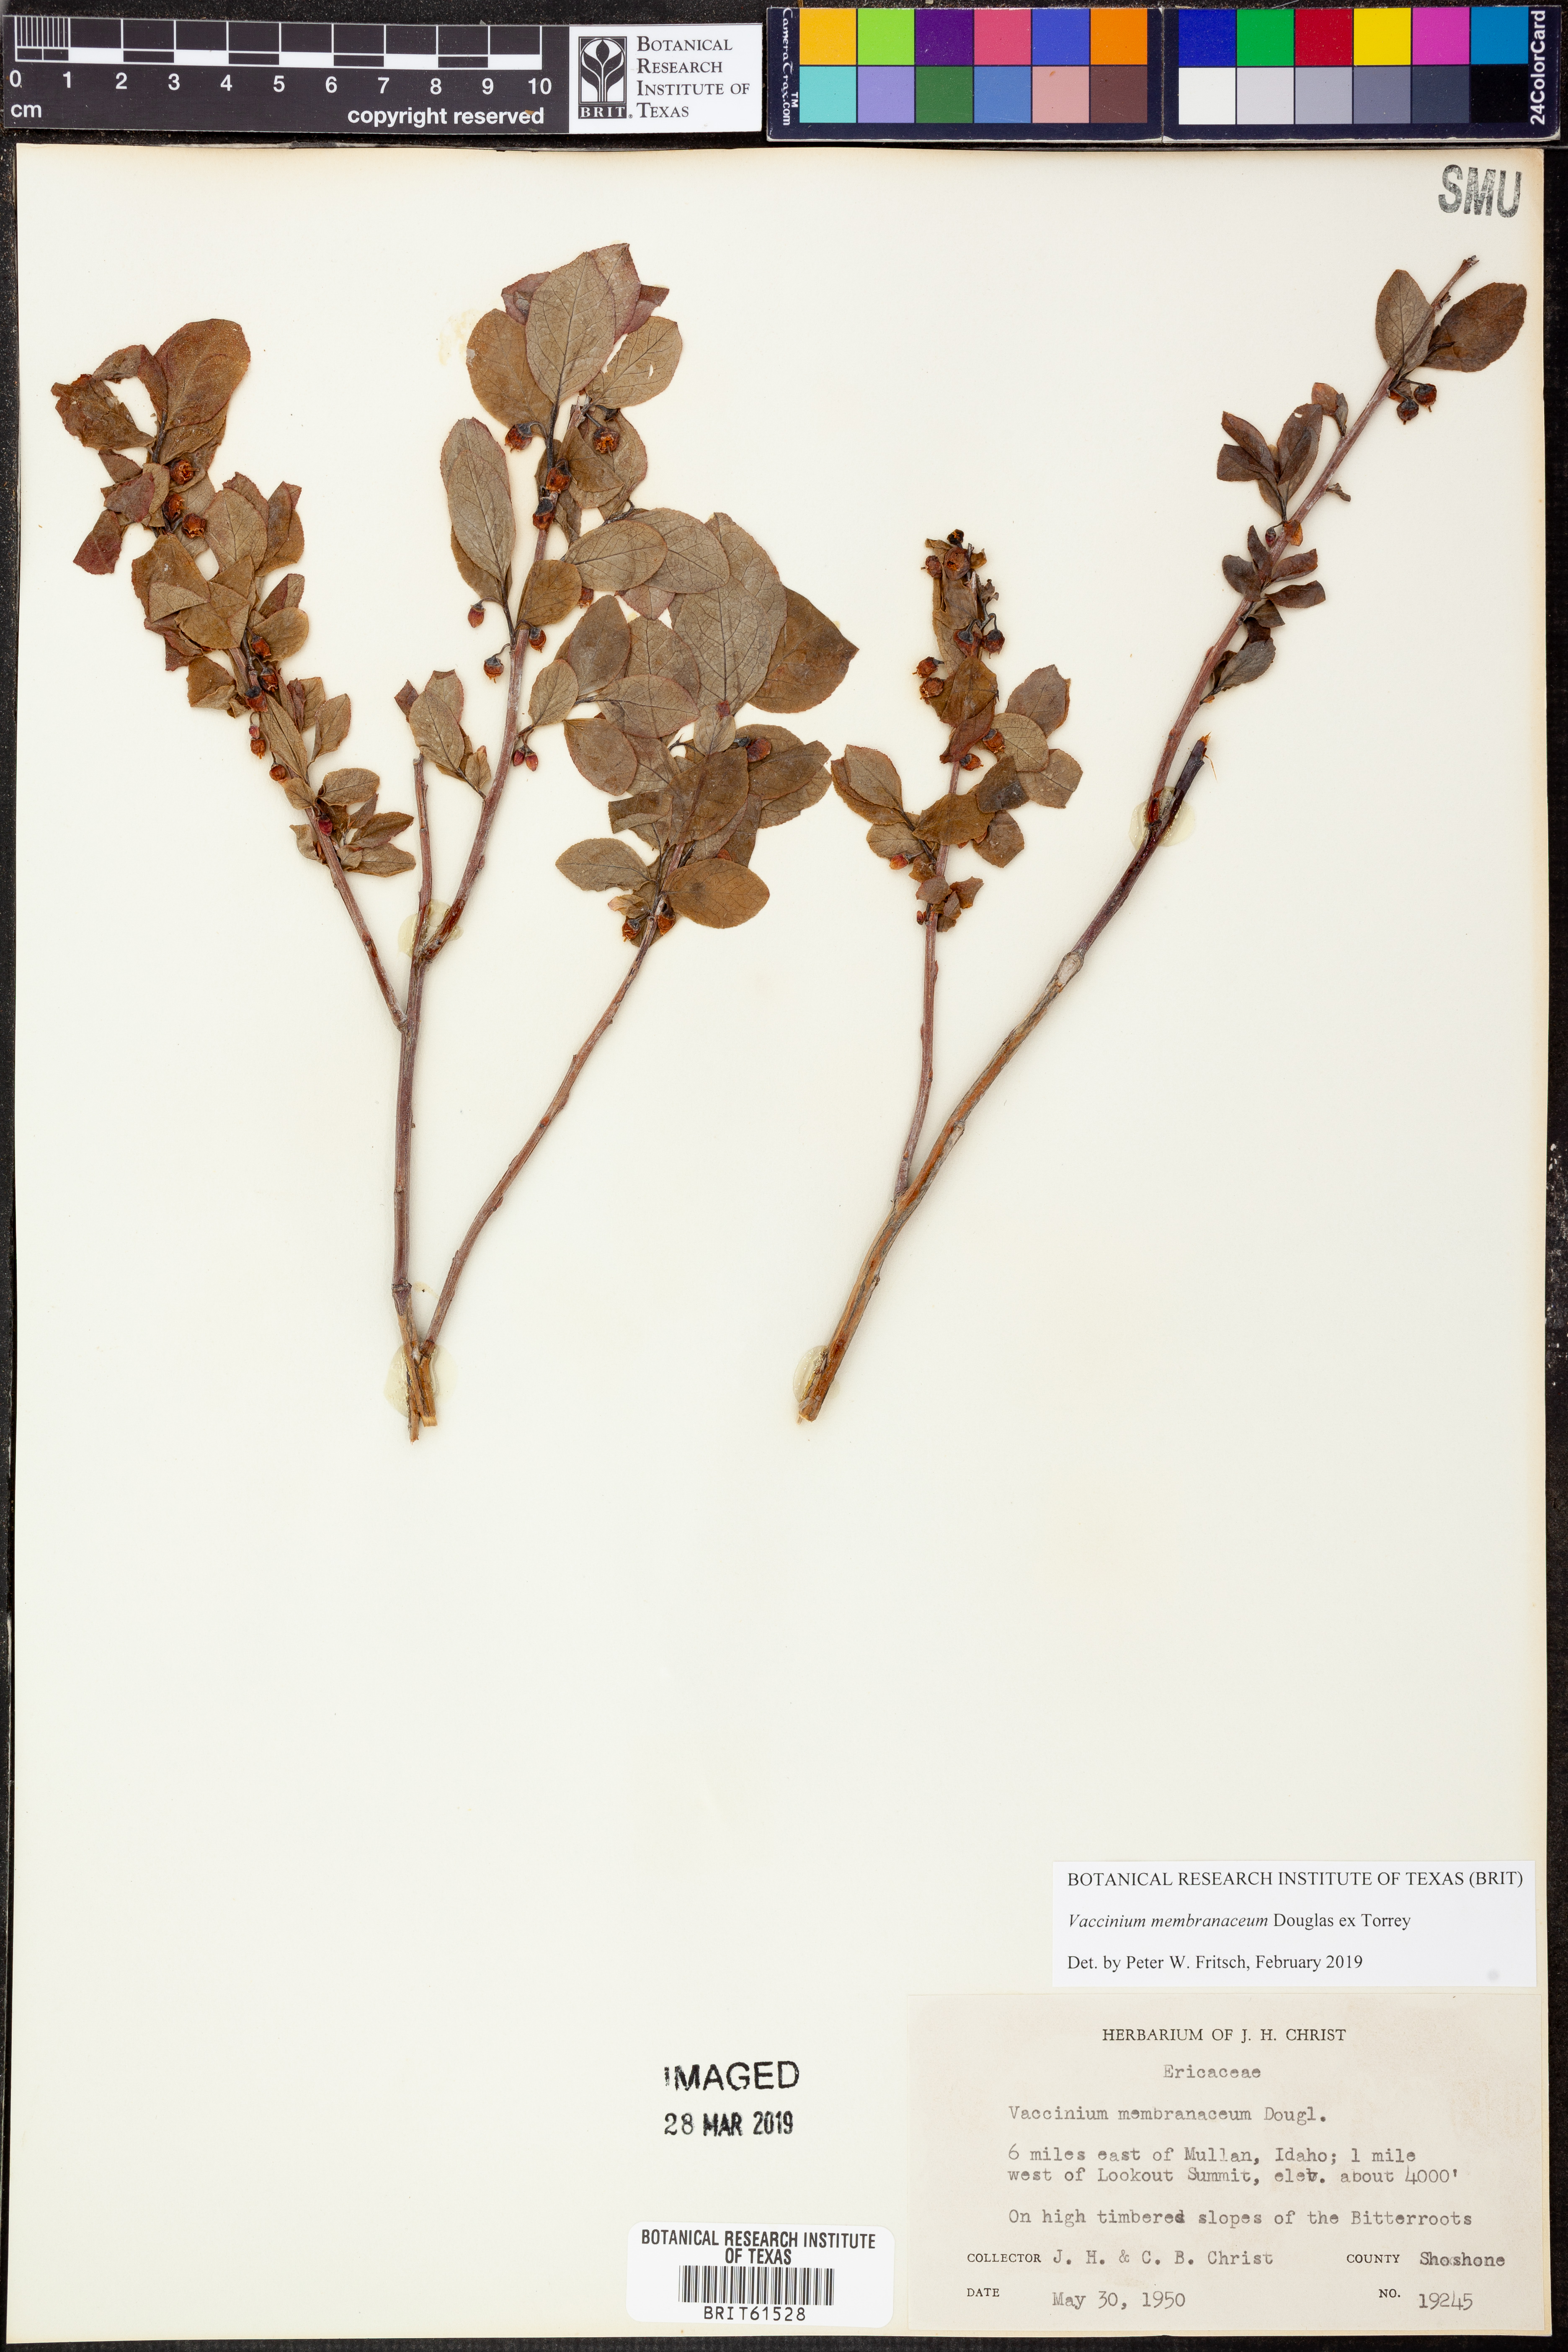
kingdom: Plantae
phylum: Tracheophyta
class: Magnoliopsida
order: Ericales
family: Ericaceae
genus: Vaccinium
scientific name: Vaccinium deliciosum
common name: Cascade bilberry
